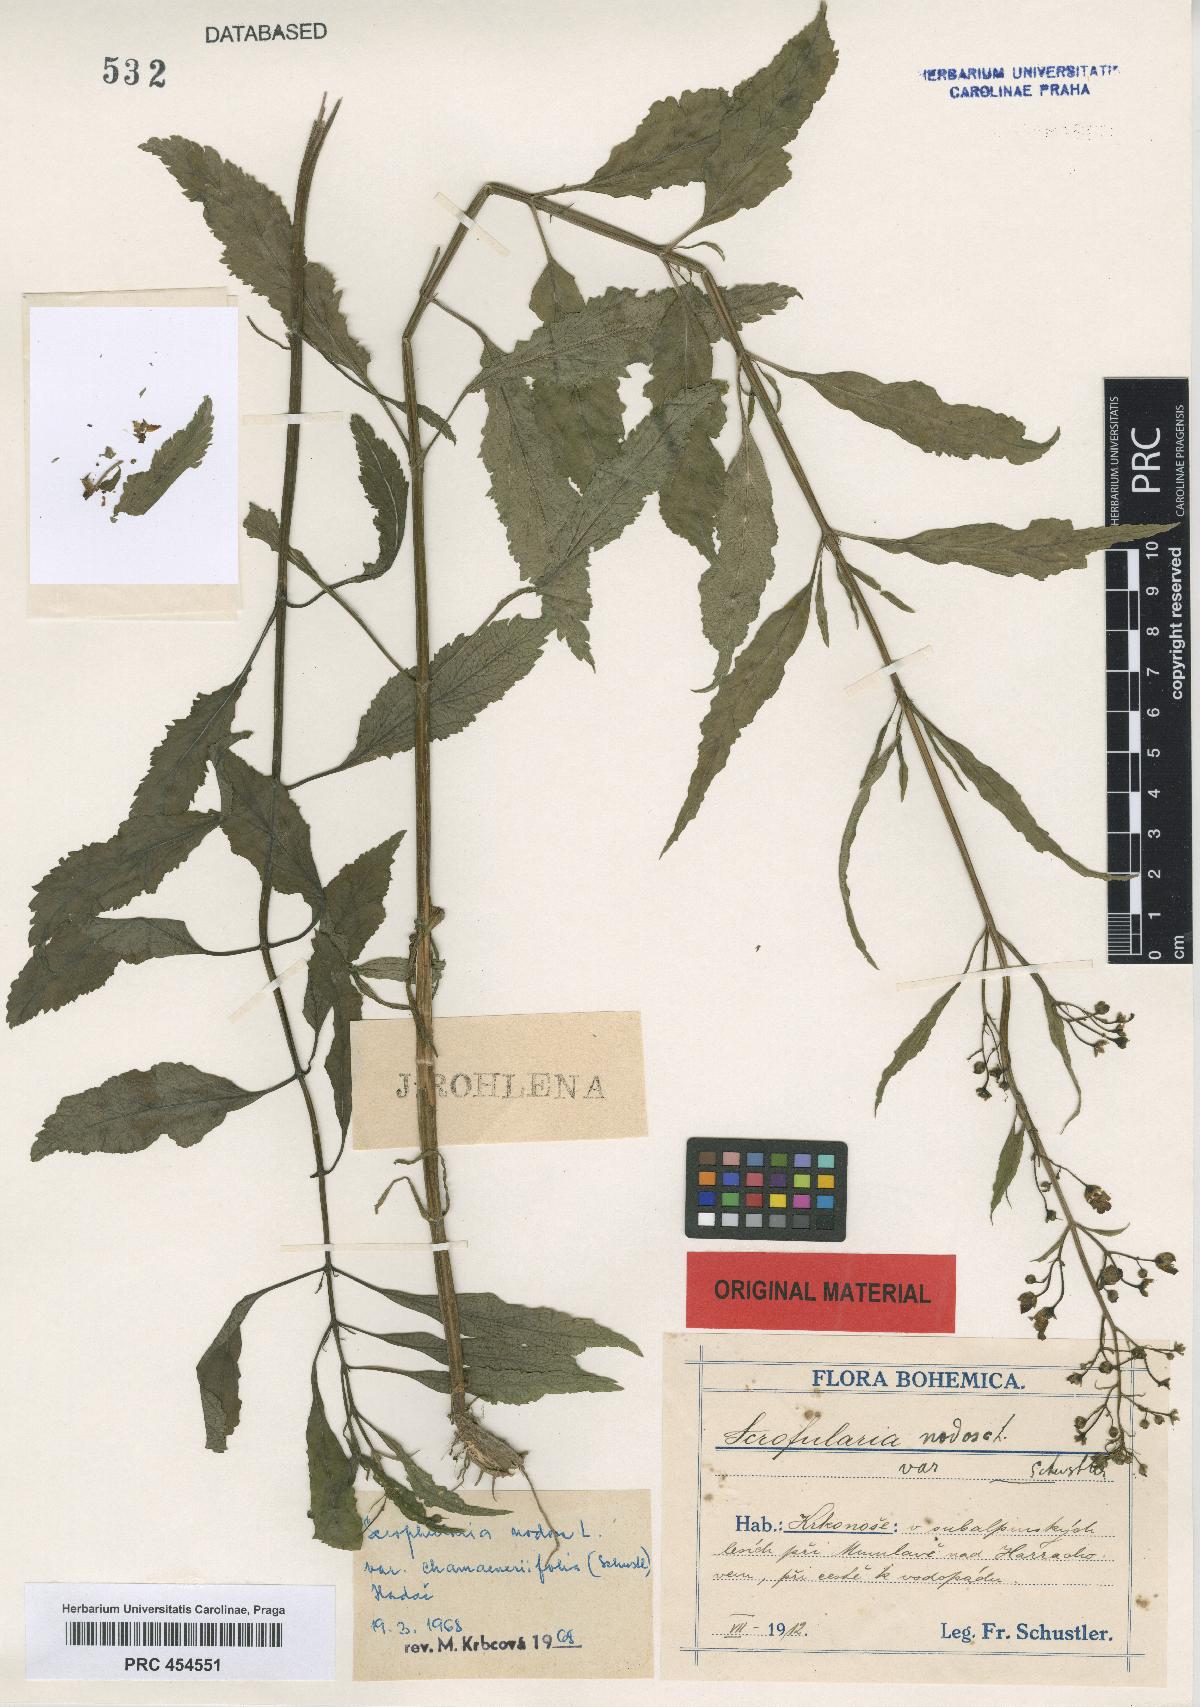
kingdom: Plantae
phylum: Tracheophyta
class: Magnoliopsida
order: Lamiales
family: Scrophulariaceae
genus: Scrophularia
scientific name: Scrophularia nodosa
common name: Common figwort
